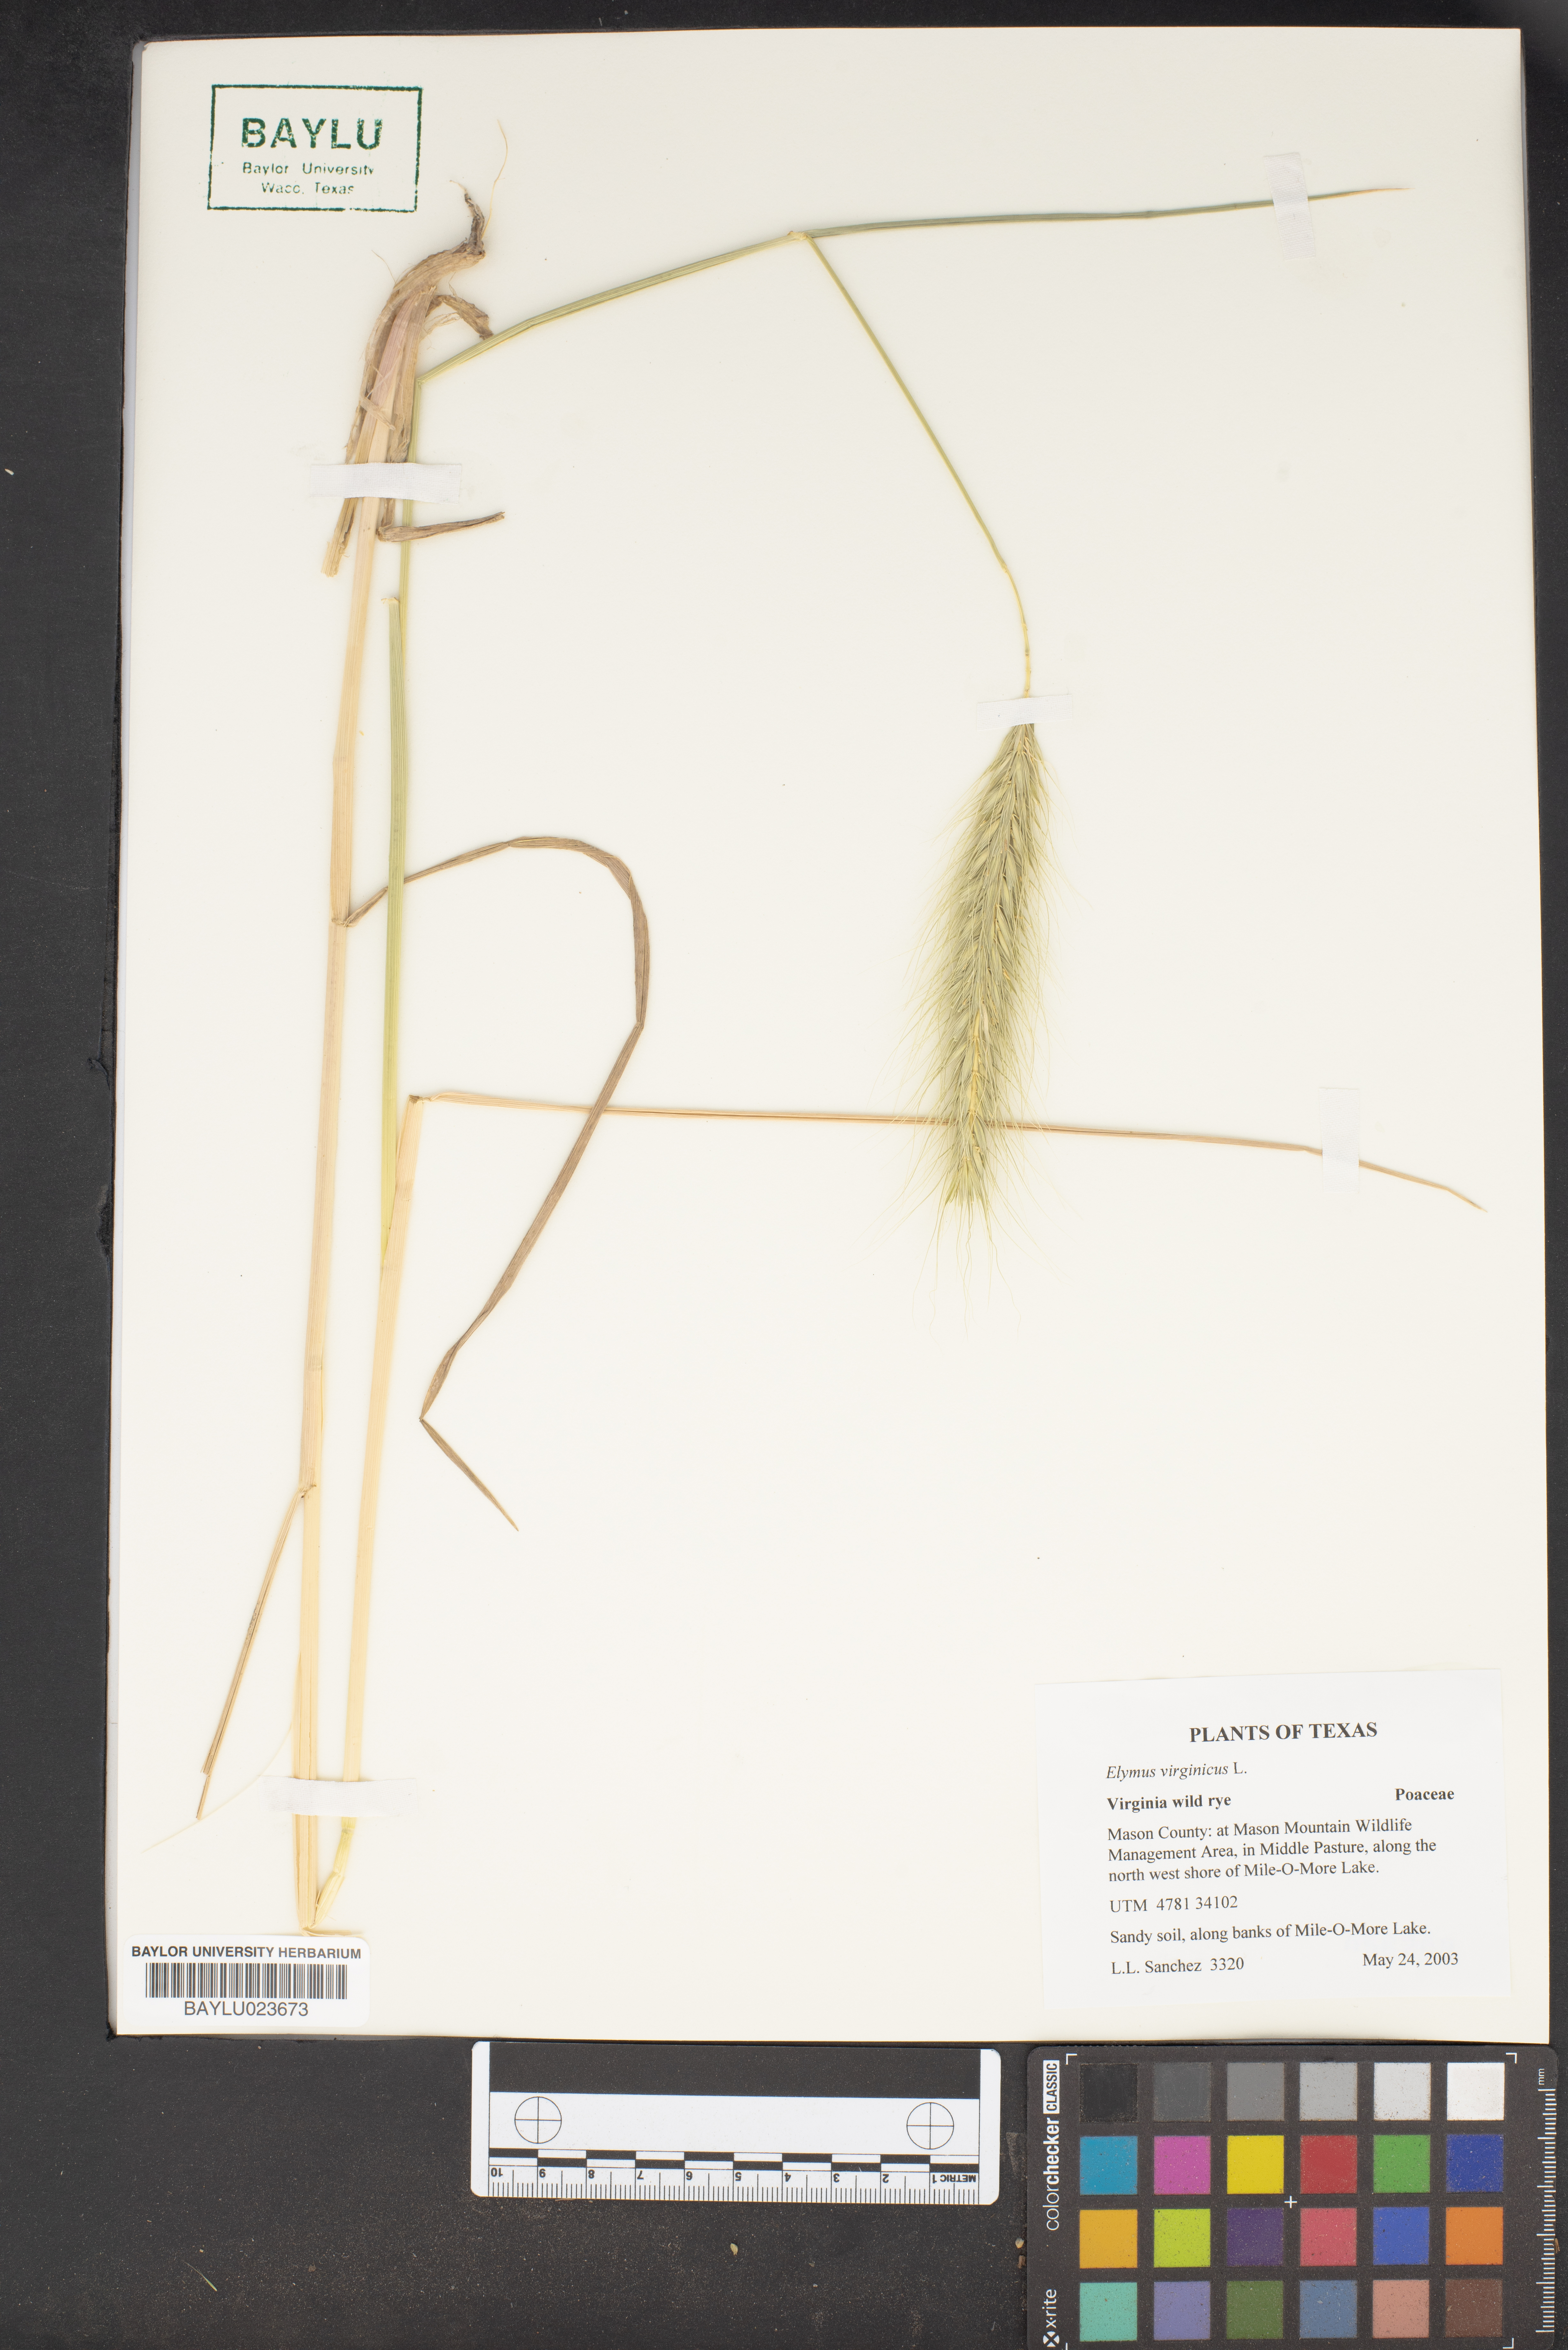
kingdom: Plantae
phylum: Tracheophyta
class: Liliopsida
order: Poales
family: Poaceae
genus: Elymus
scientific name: Elymus virginicus
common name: Common eastern wildrye
